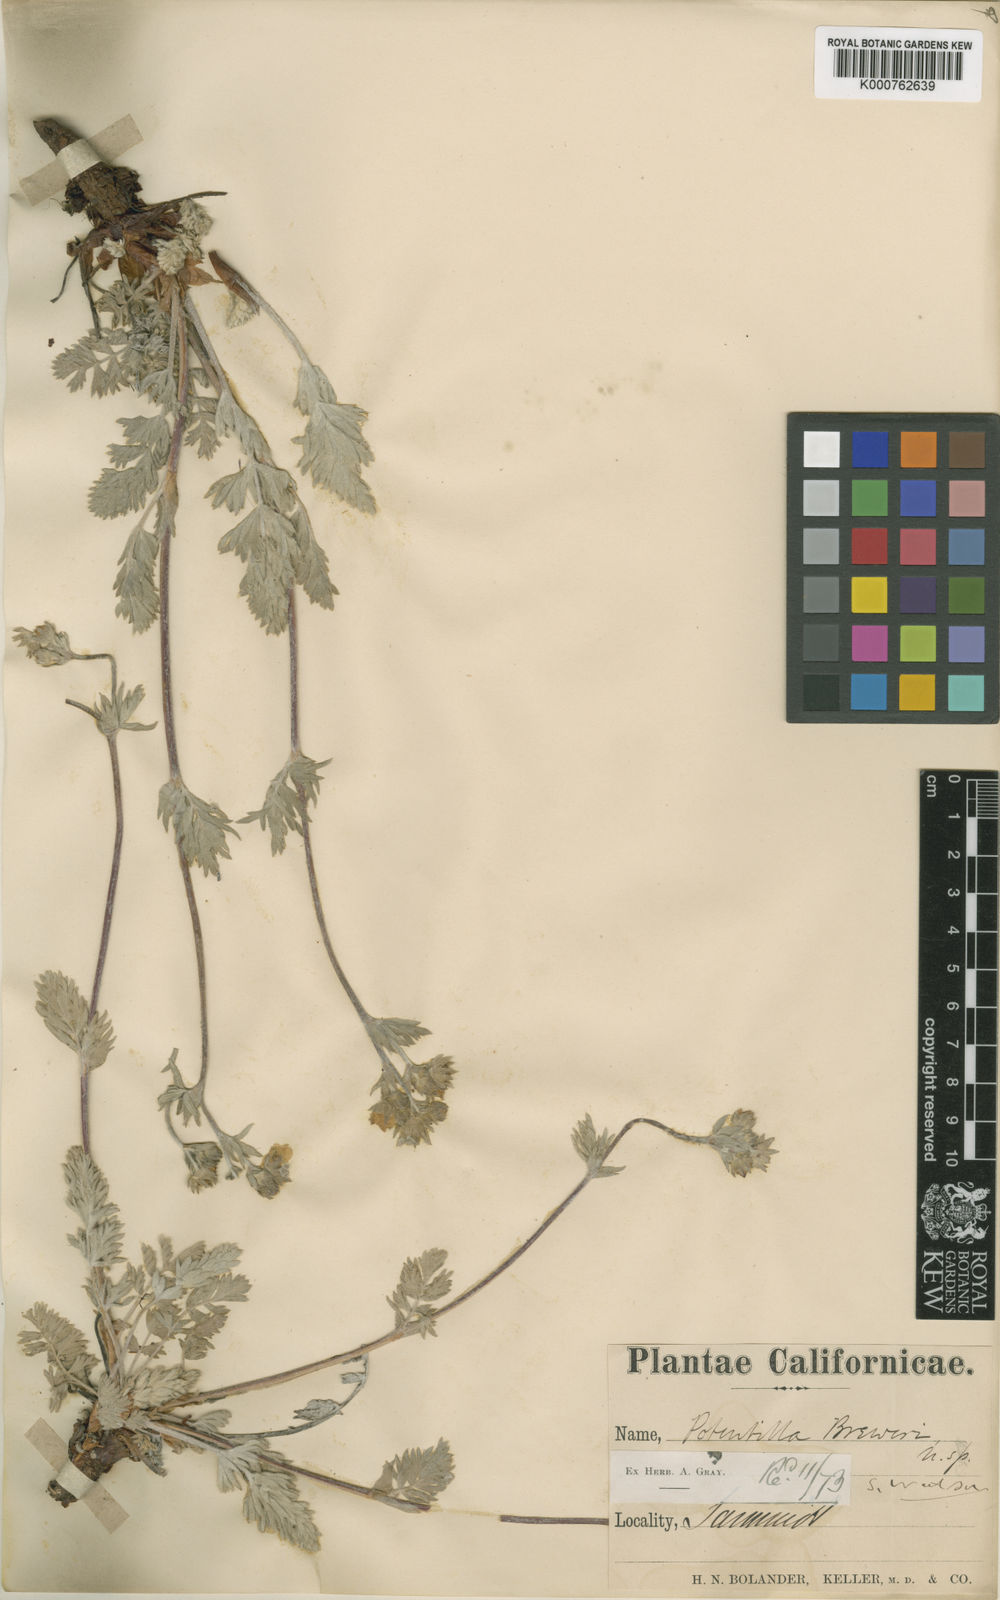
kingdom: Plantae
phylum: Tracheophyta
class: Magnoliopsida
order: Rosales
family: Rosaceae
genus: Potentilla
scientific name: Potentilla breweri
